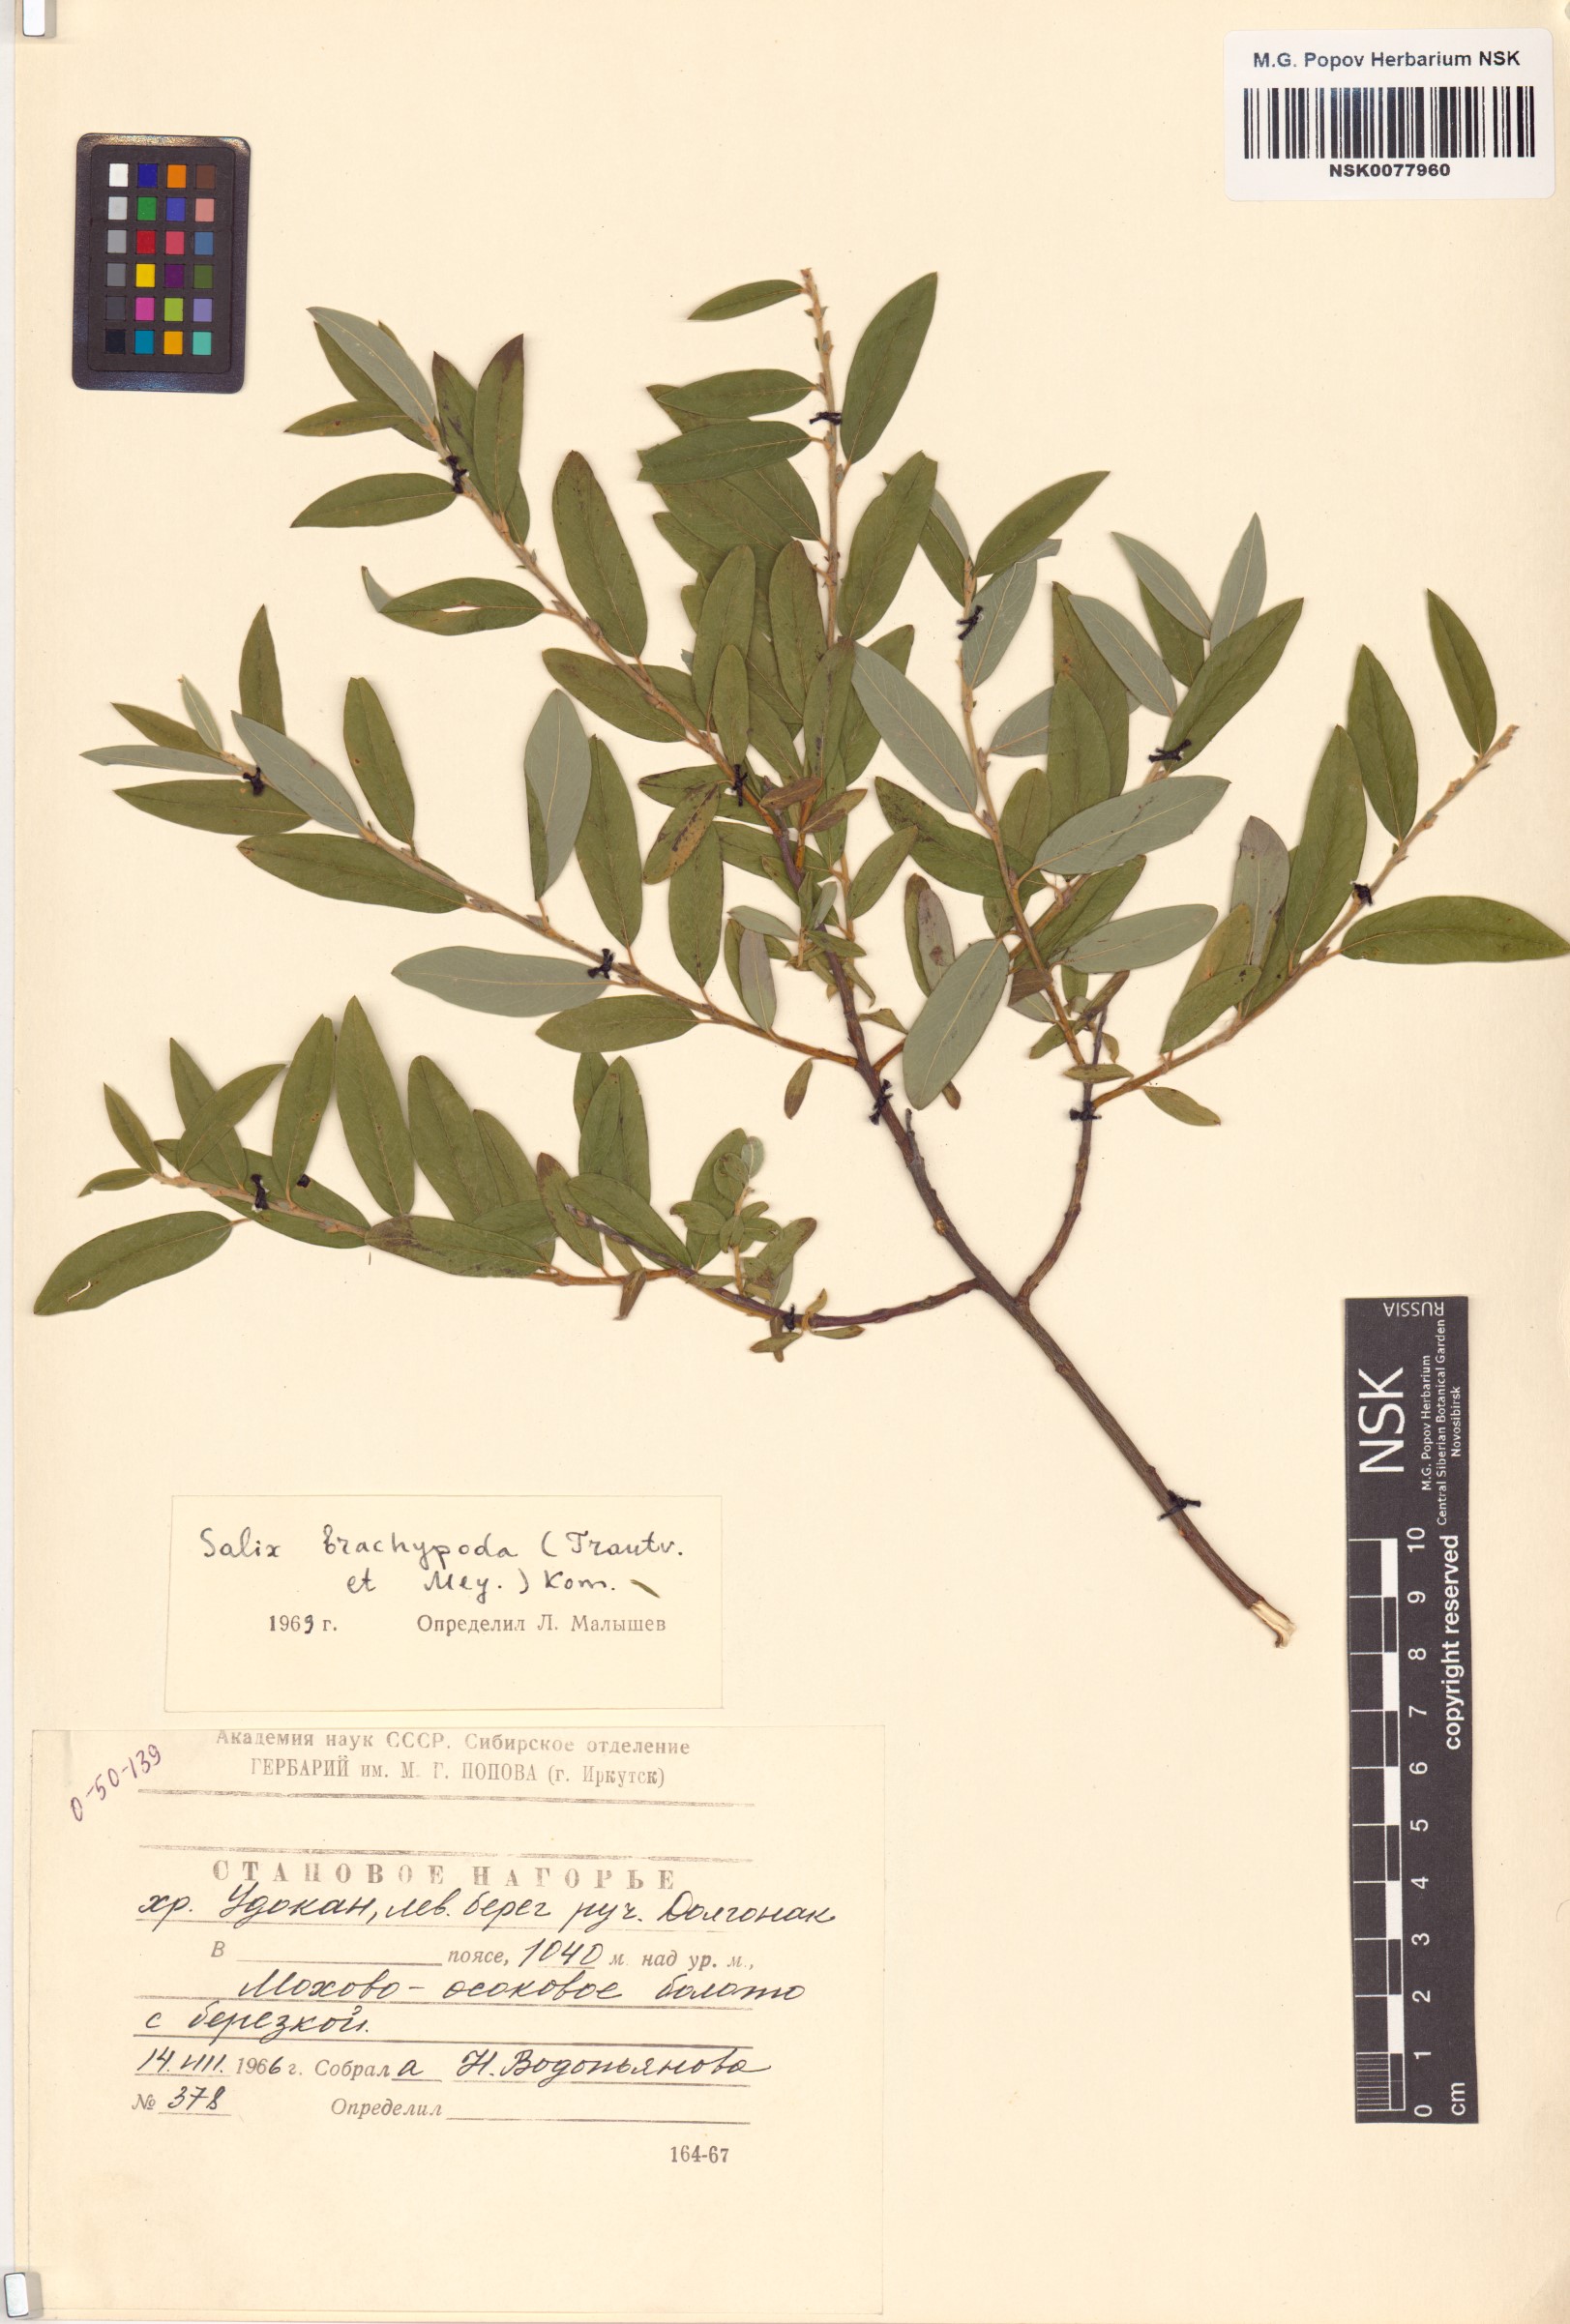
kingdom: Plantae
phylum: Tracheophyta
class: Magnoliopsida
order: Malpighiales
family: Salicaceae
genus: Salix
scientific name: Salix brachypoda
